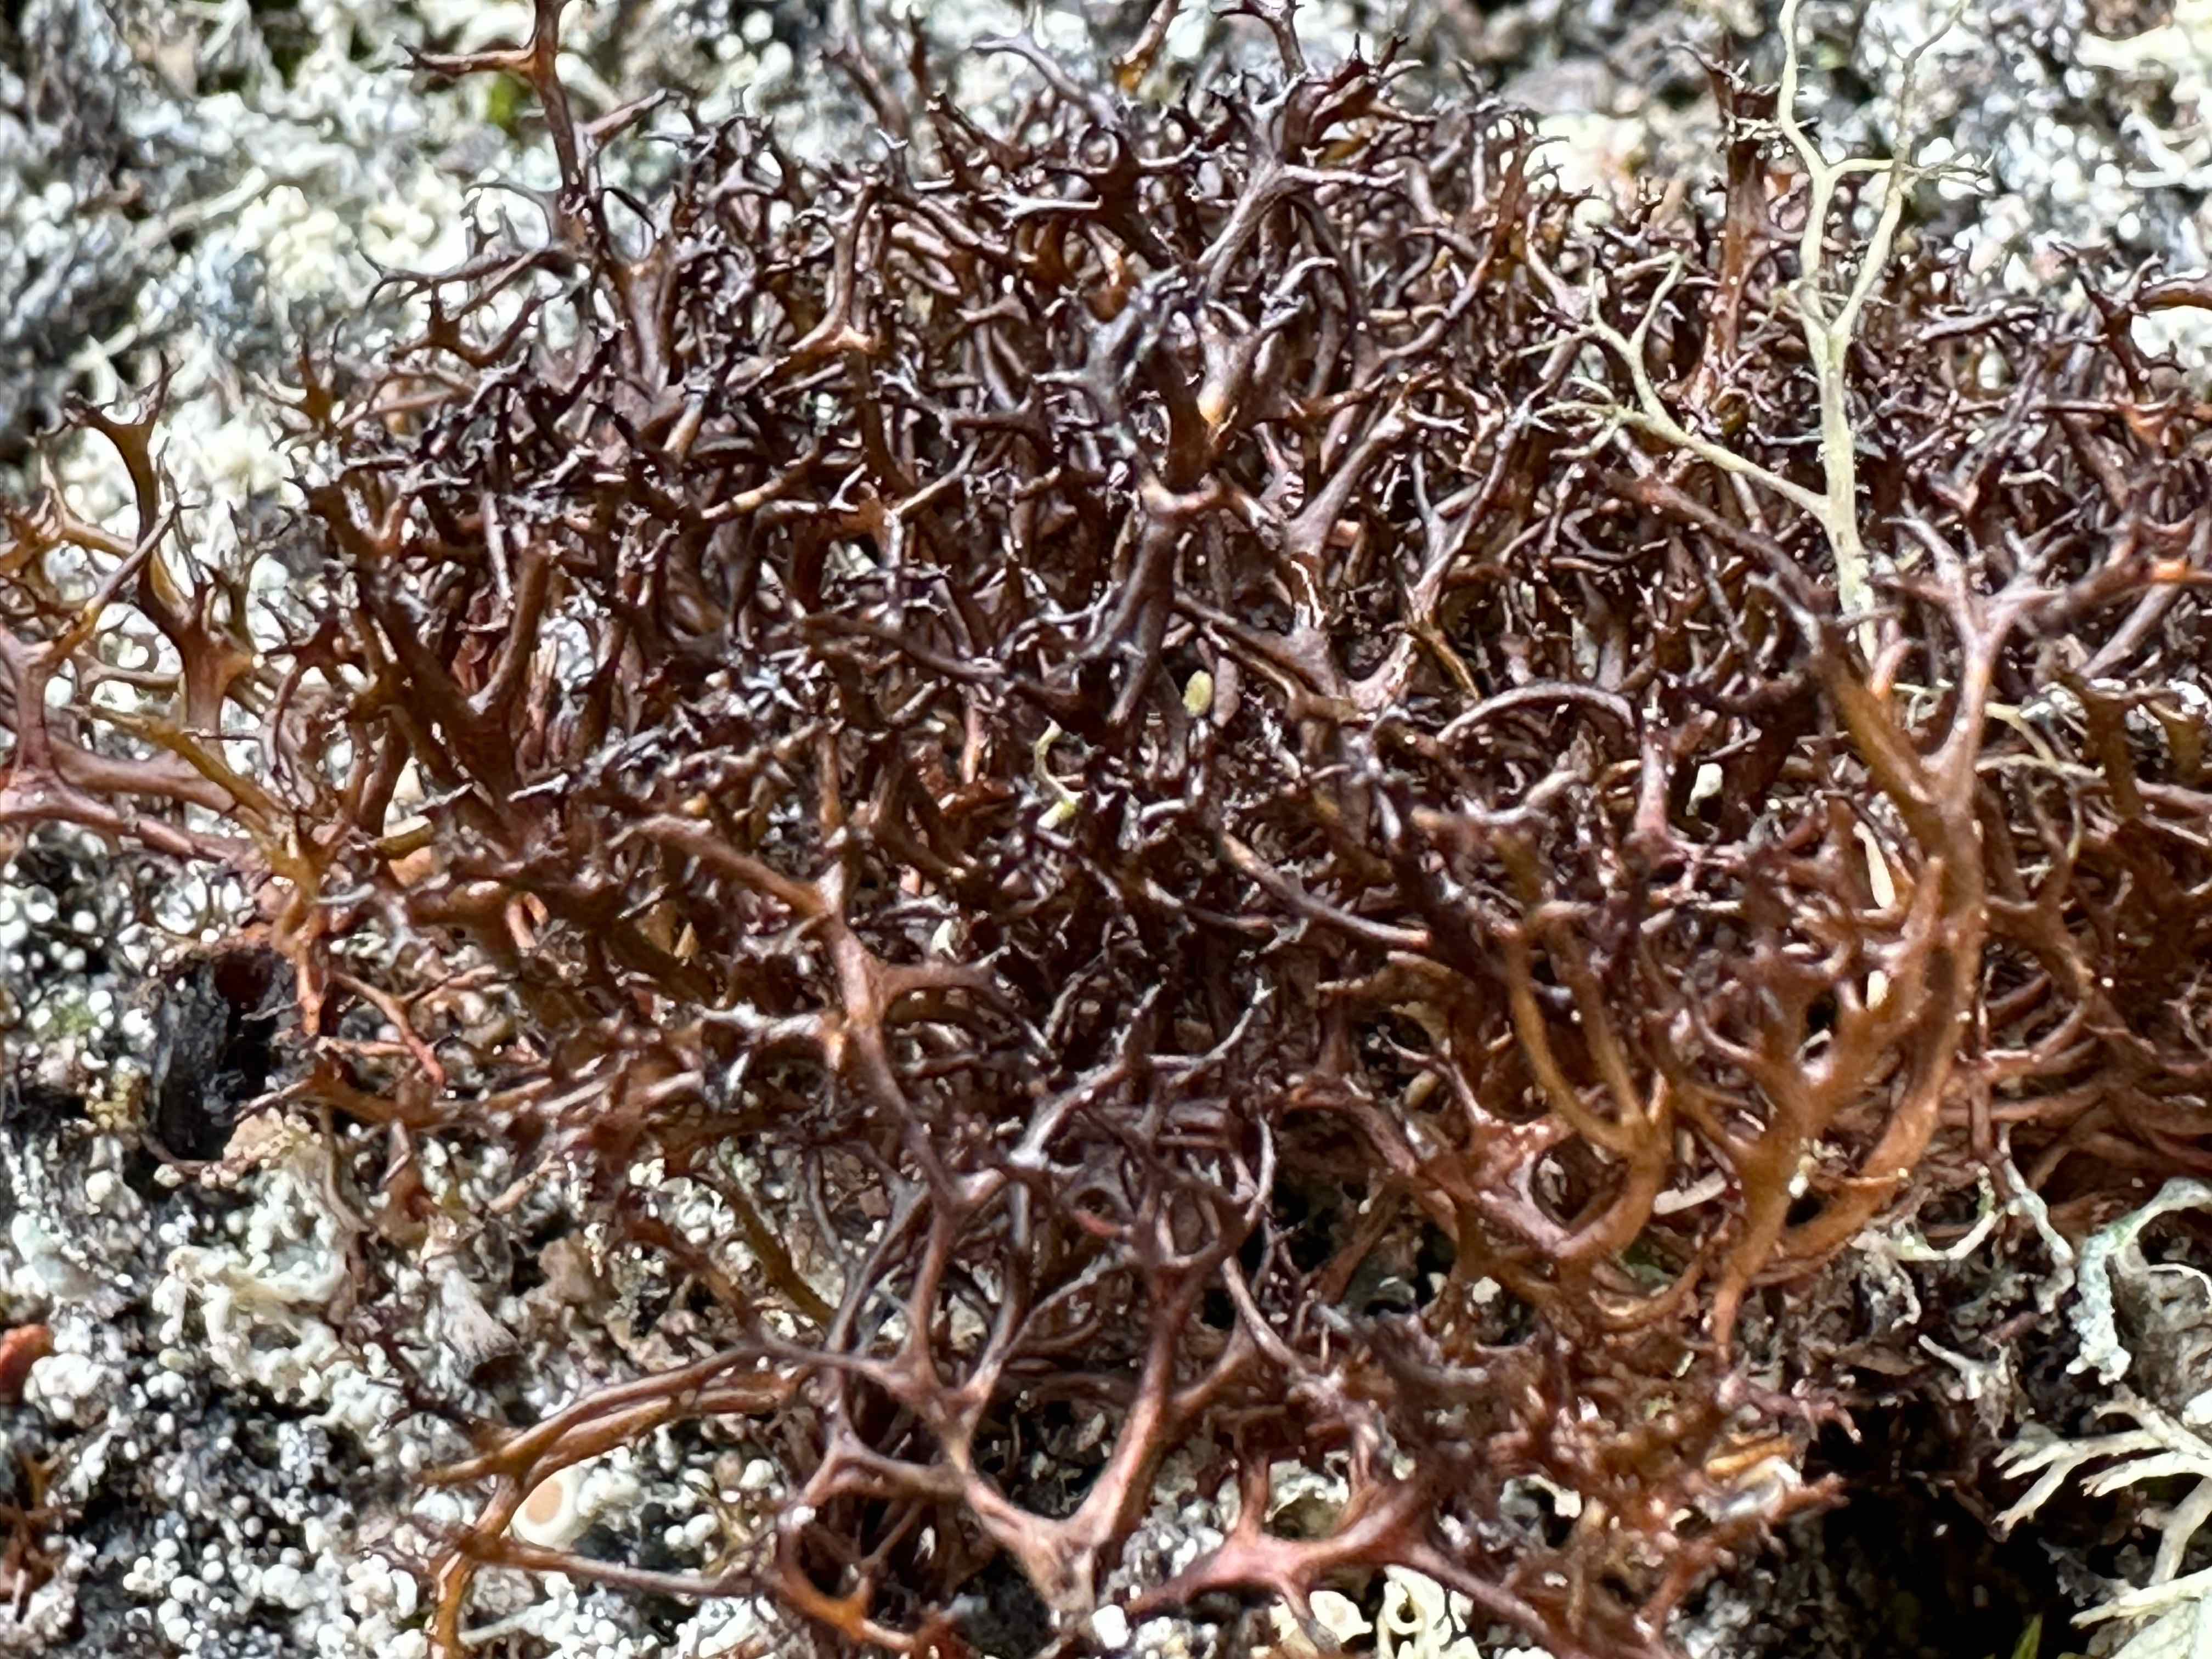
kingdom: Fungi
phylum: Ascomycota
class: Lecanoromycetes
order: Lecanorales
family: Parmeliaceae
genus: Cetraria
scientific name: Cetraria muricata
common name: tue-tjørnelav
